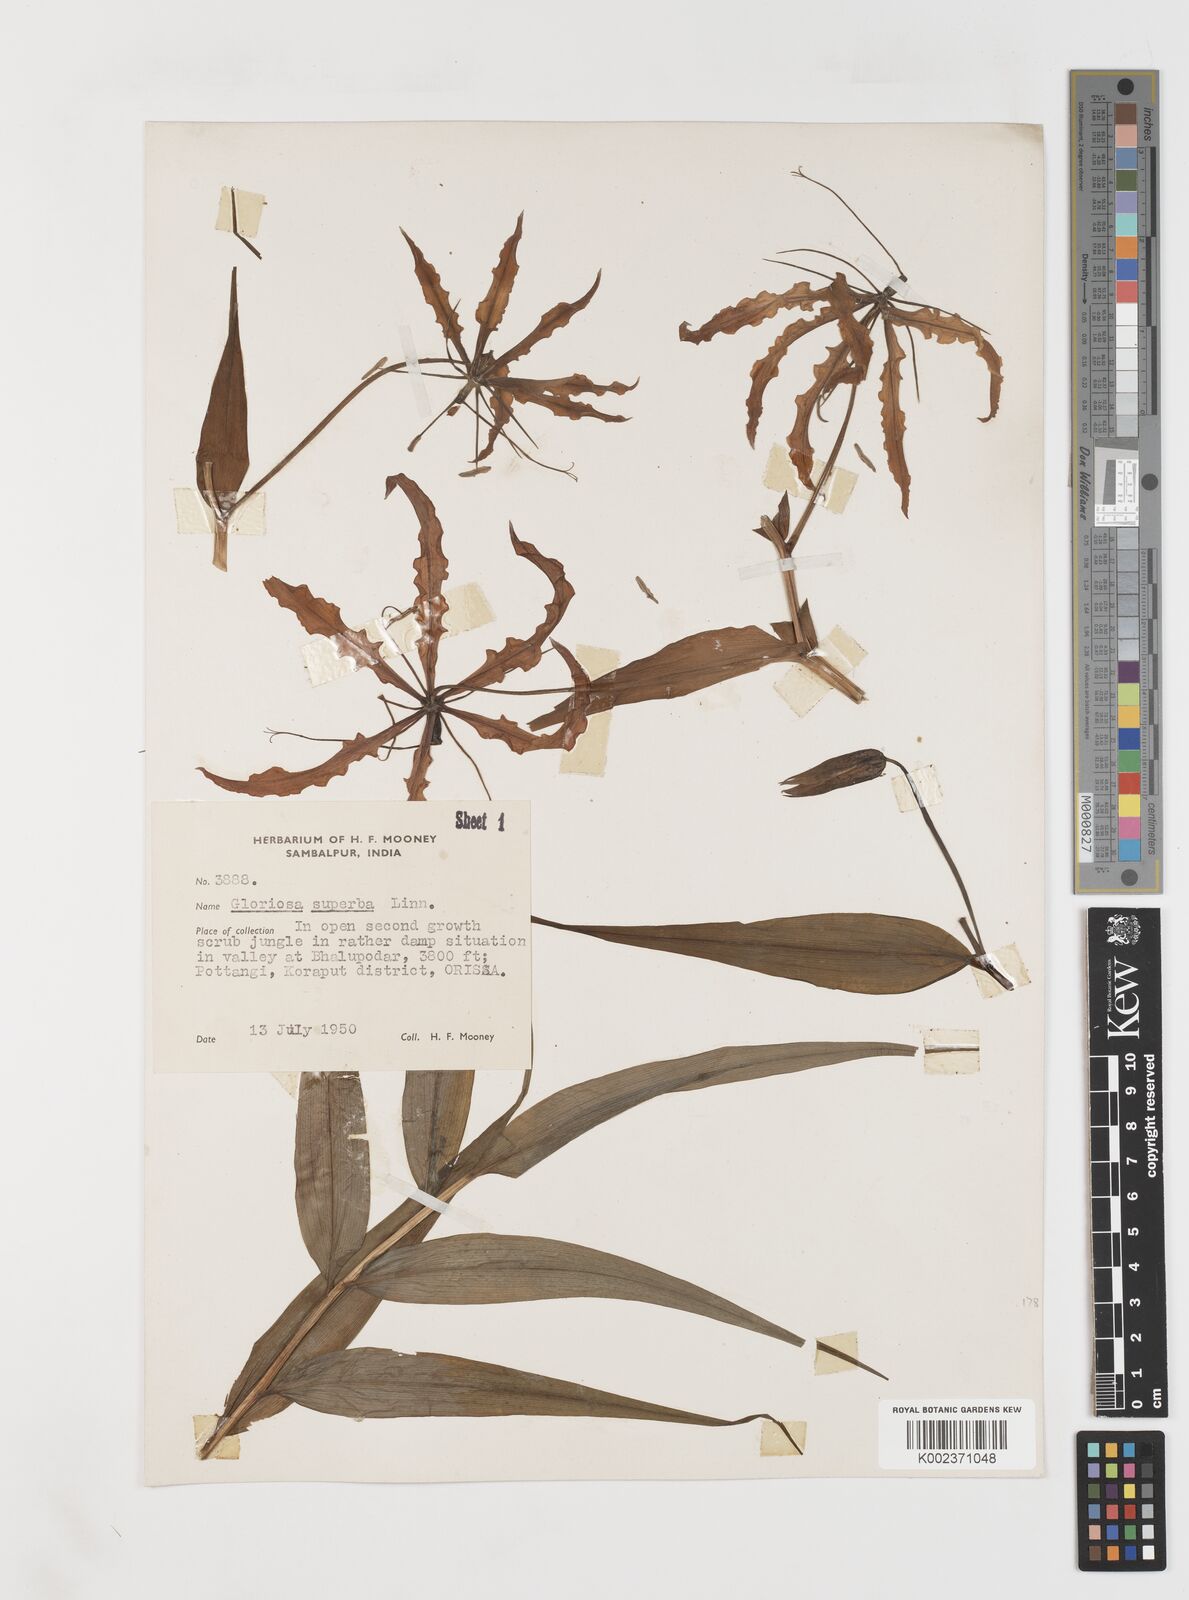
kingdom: Plantae
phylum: Tracheophyta
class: Liliopsida
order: Liliales
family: Colchicaceae
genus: Gloriosa
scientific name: Gloriosa superba
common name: Flame lily
